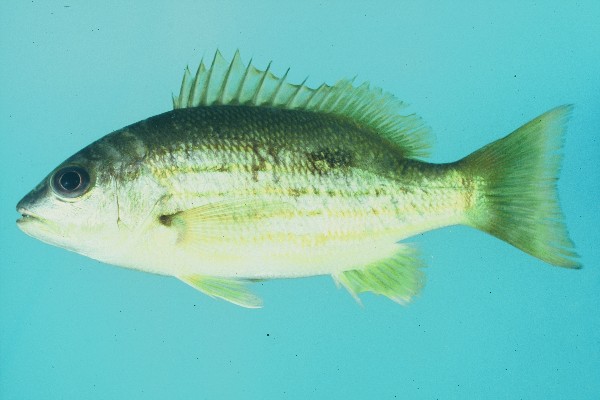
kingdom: Animalia
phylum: Chordata
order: Perciformes
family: Lutjanidae
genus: Lutjanus
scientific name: Lutjanus fulviflamma
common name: Blackspot snapper
